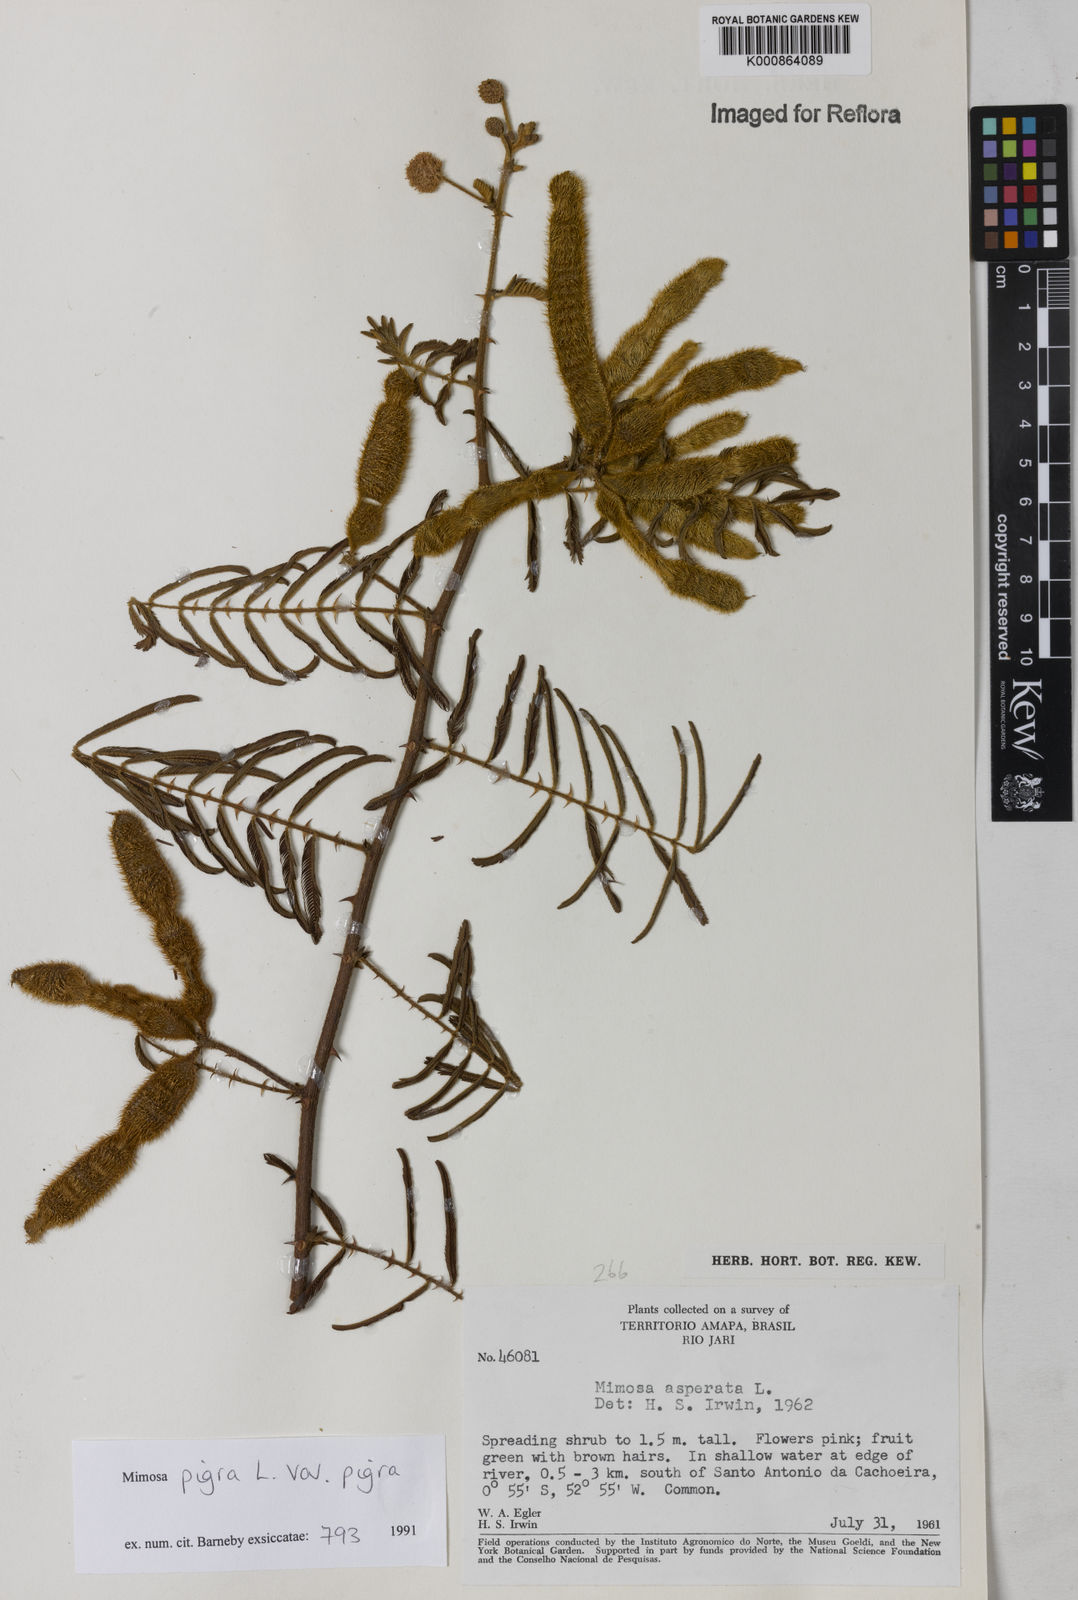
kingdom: Plantae
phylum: Tracheophyta
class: Magnoliopsida
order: Fabales
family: Fabaceae
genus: Mimosa
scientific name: Mimosa pigra
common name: Black mimosa
